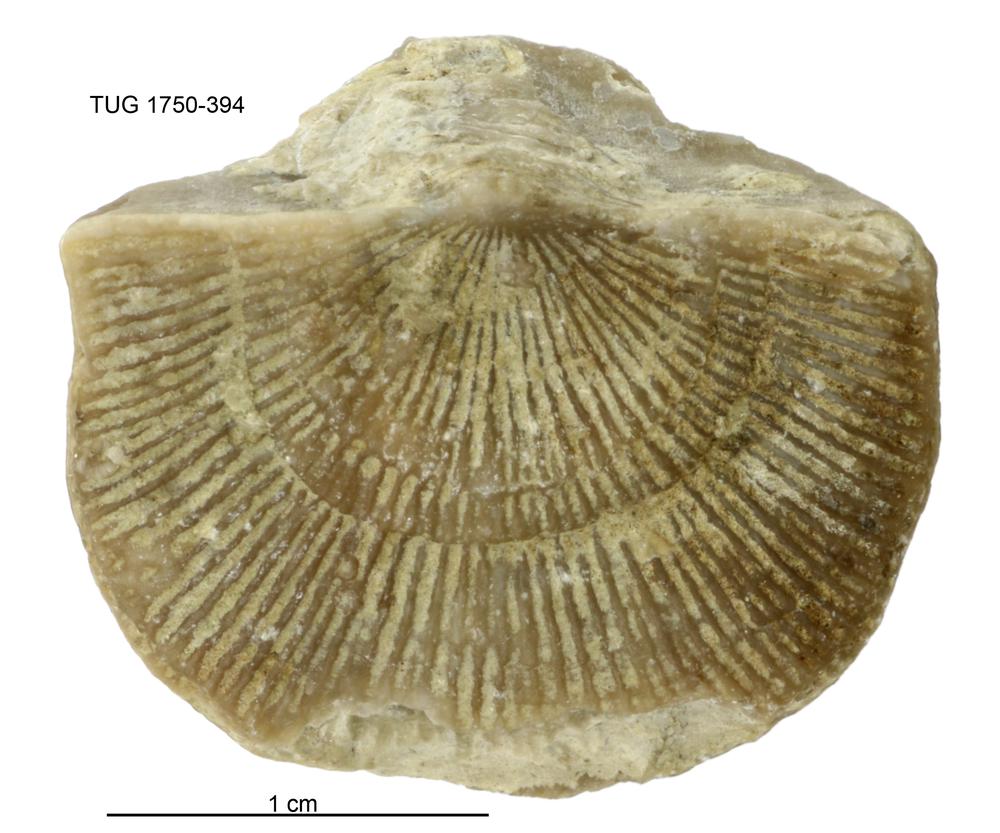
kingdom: Animalia
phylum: Brachiopoda
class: Rhynchonellata
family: Clitambonitidae
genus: Vellamo
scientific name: Vellamo
